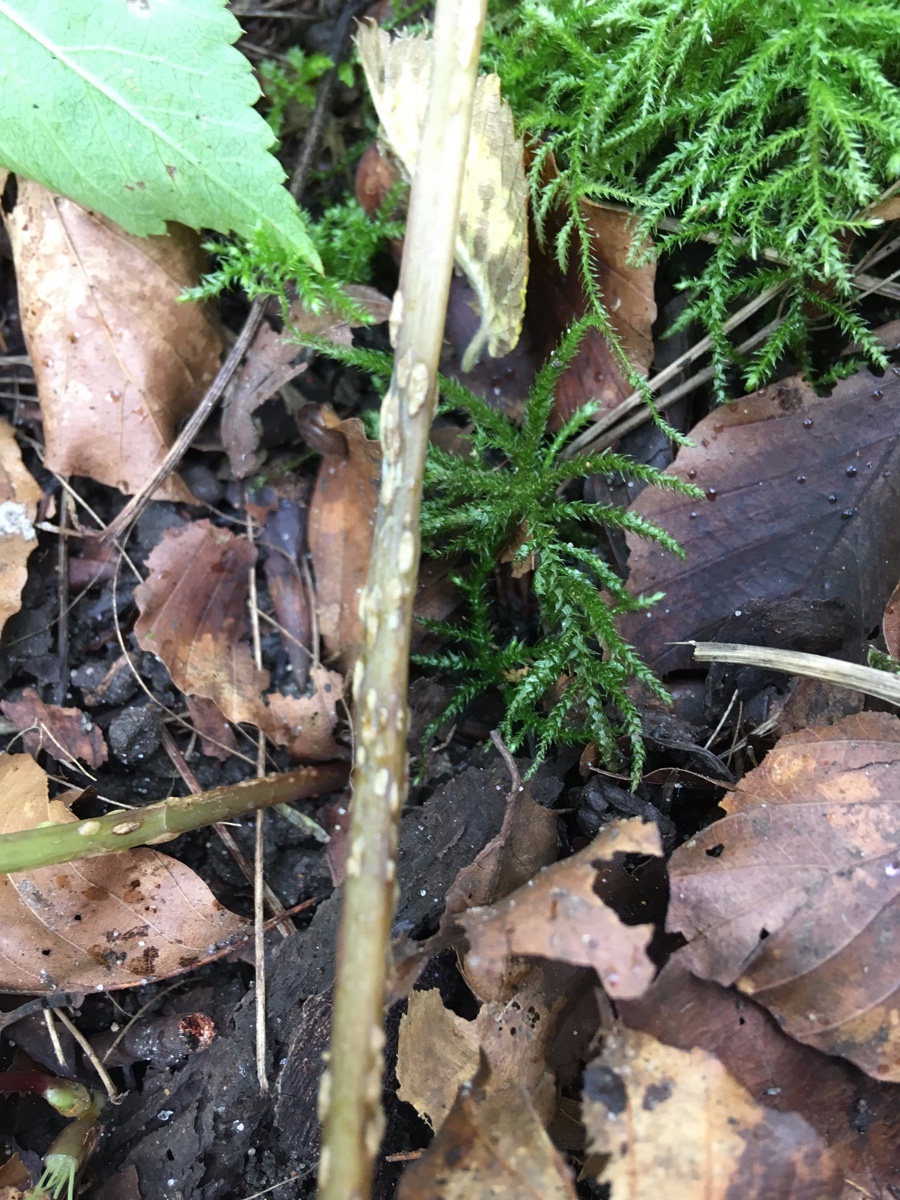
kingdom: Fungi
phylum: Ascomycota
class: Taphrinomycetes
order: Taphrinales
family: Taphrinaceae
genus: Protomyces
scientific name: Protomyces macrosporus
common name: skvalderkål-vablesæk
